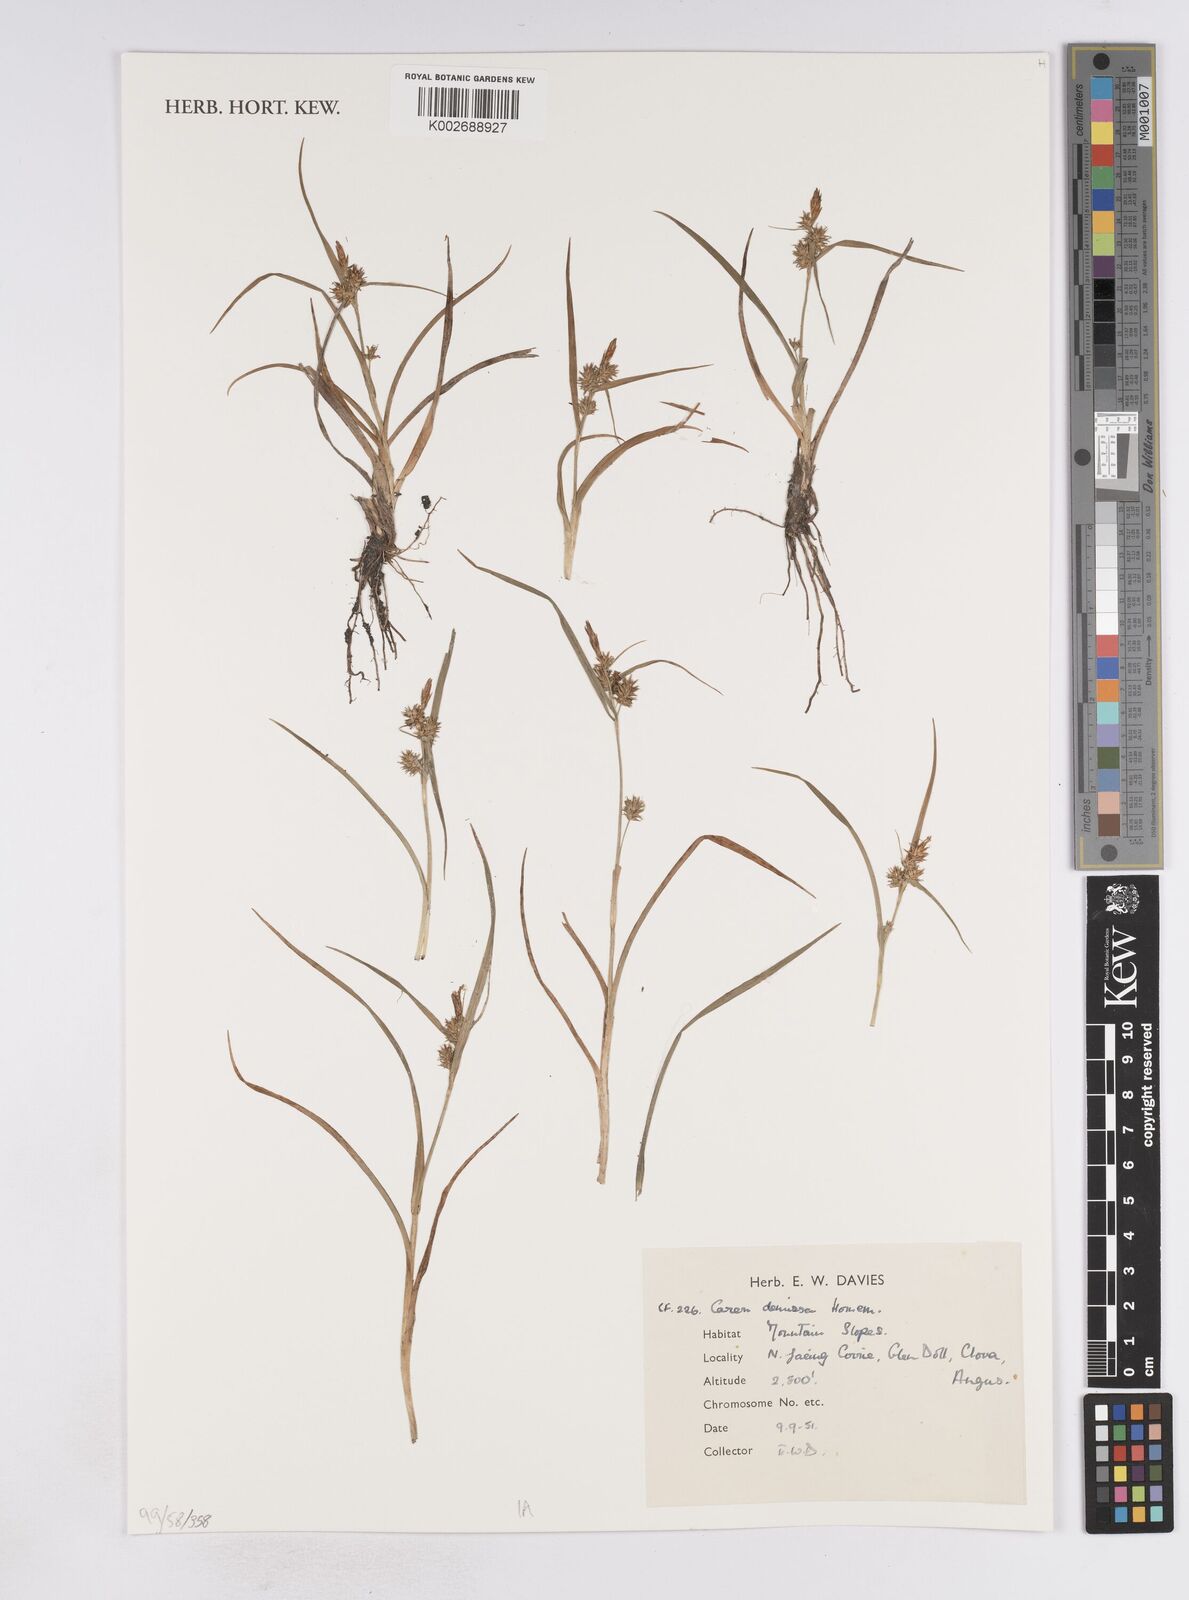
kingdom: Plantae
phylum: Tracheophyta
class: Liliopsida
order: Poales
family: Cyperaceae
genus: Carex
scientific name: Carex demissa
